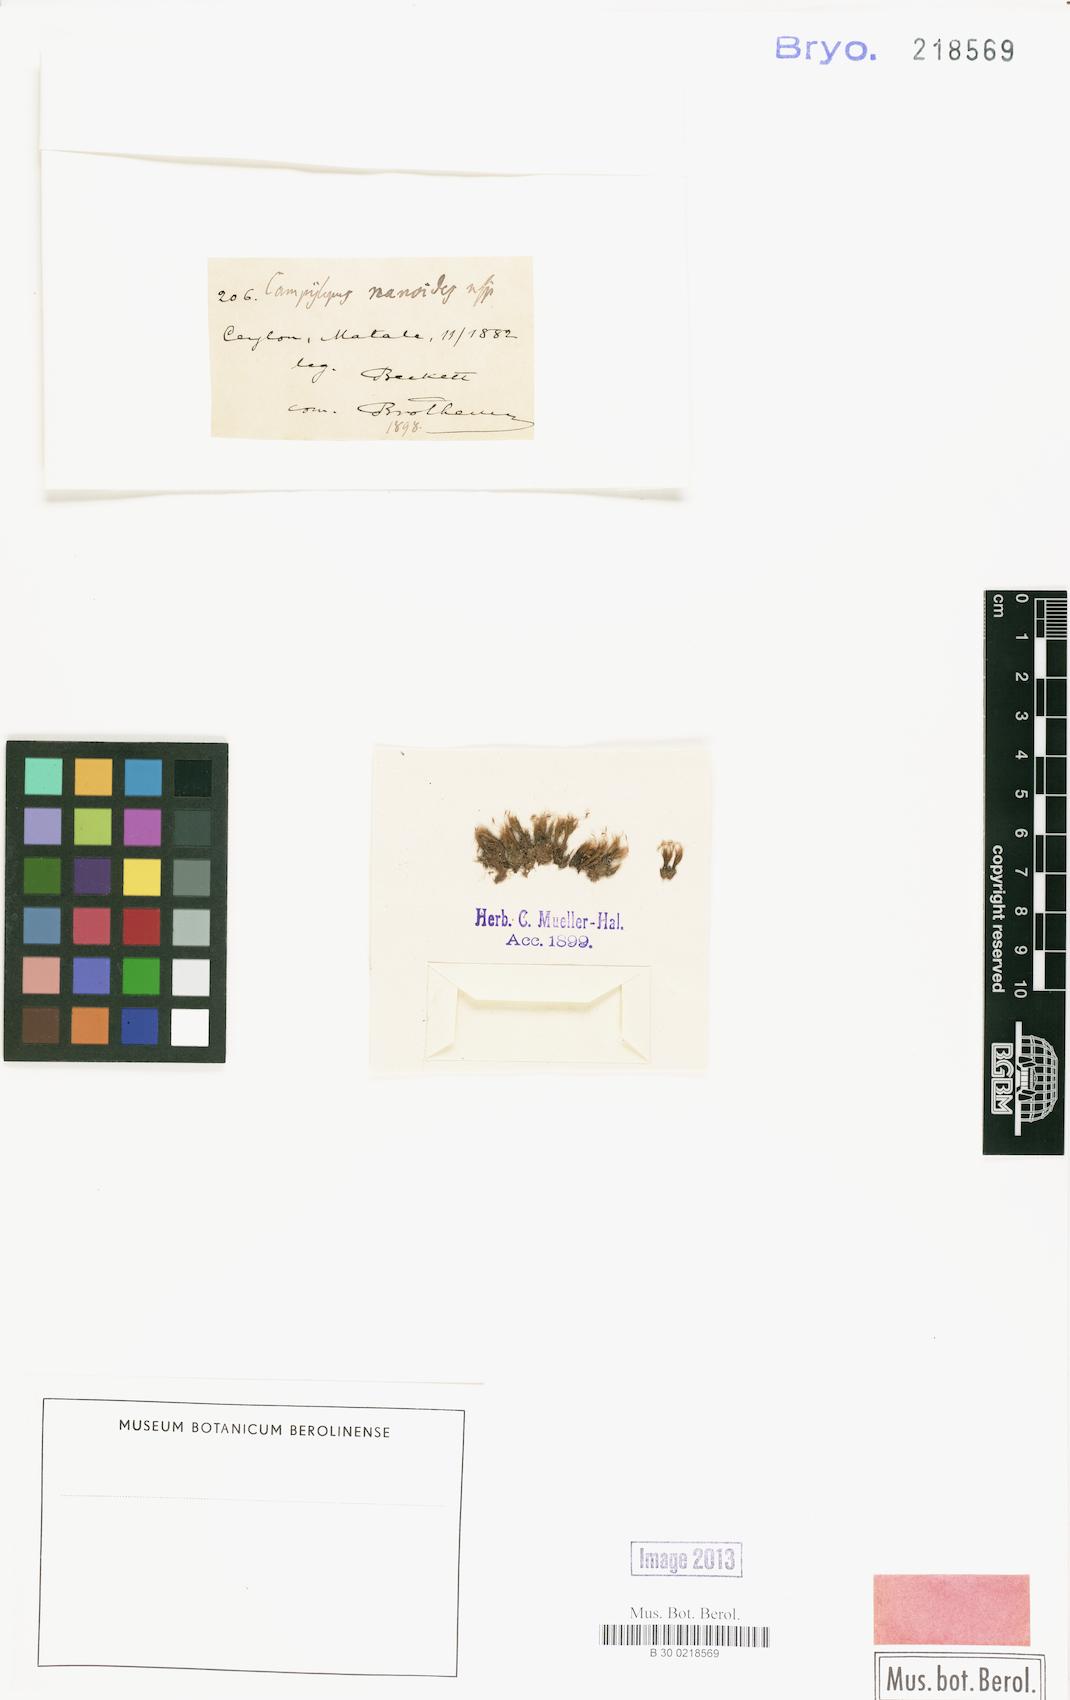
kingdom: Plantae
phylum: Bryophyta
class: Bryopsida
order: Dicranales
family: Dicranaceae
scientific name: Dicranaceae
